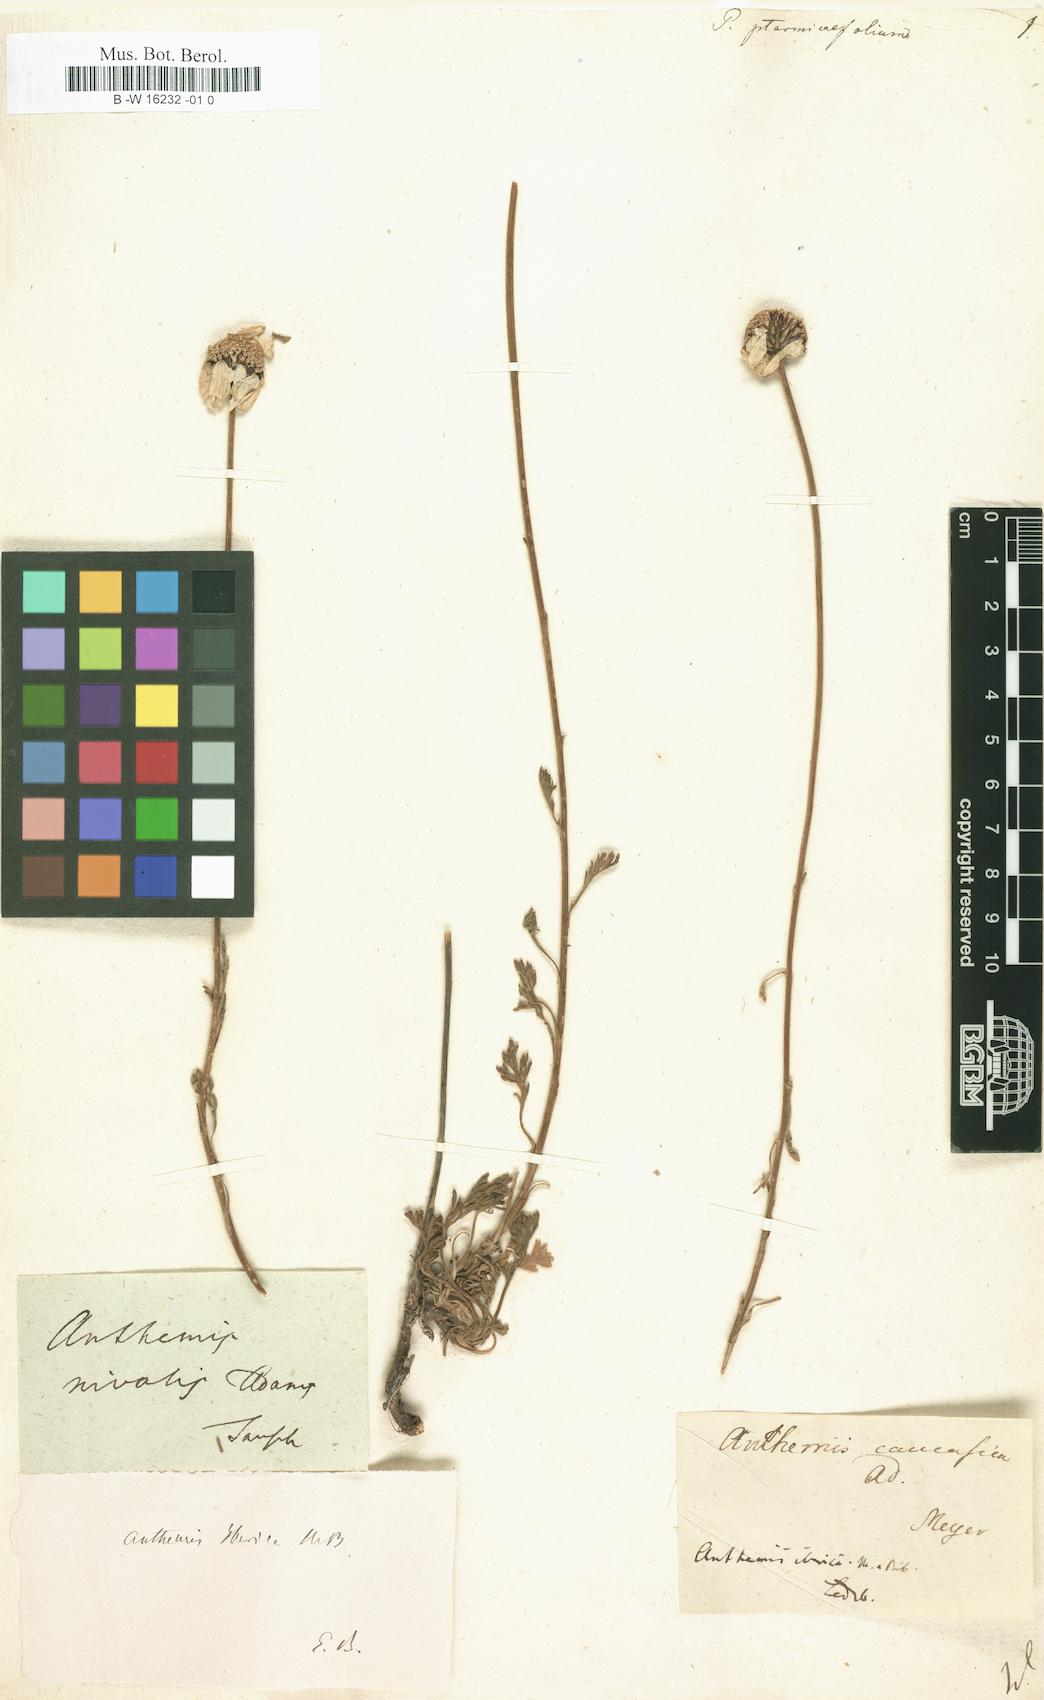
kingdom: Plantae
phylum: Tracheophyta
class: Magnoliopsida
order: Asterales
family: Asteraceae
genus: Achillea
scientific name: Achillea ptarmicifolia
